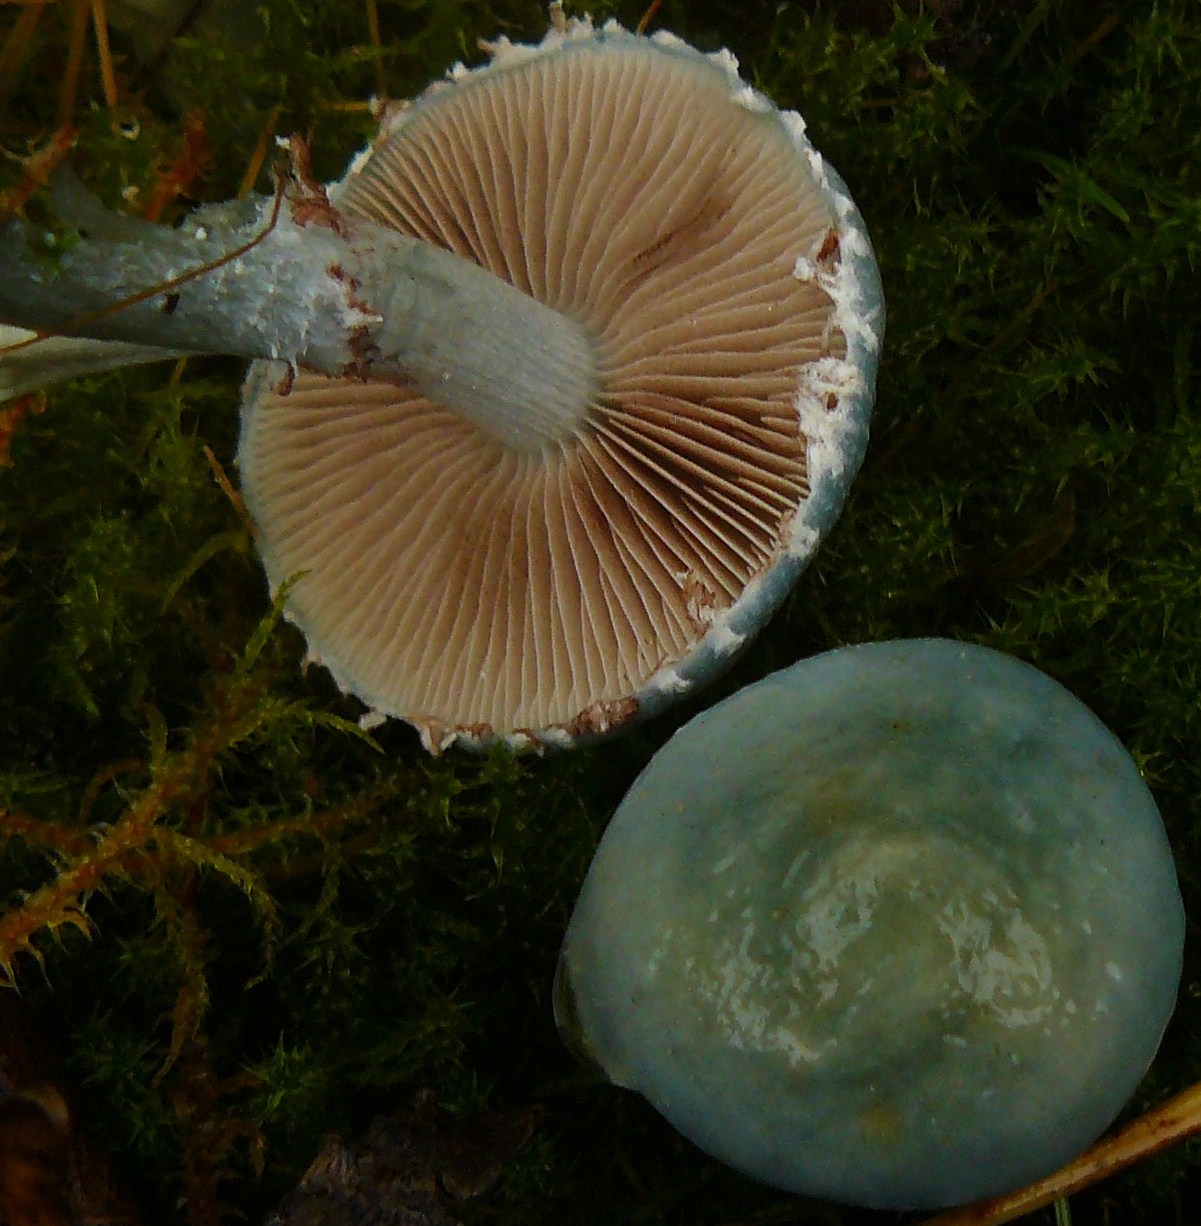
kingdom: Fungi
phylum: Basidiomycota
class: Agaricomycetes
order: Agaricales
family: Strophariaceae
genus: Stropharia
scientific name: Stropharia cyanea
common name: blågrøn bredblad
